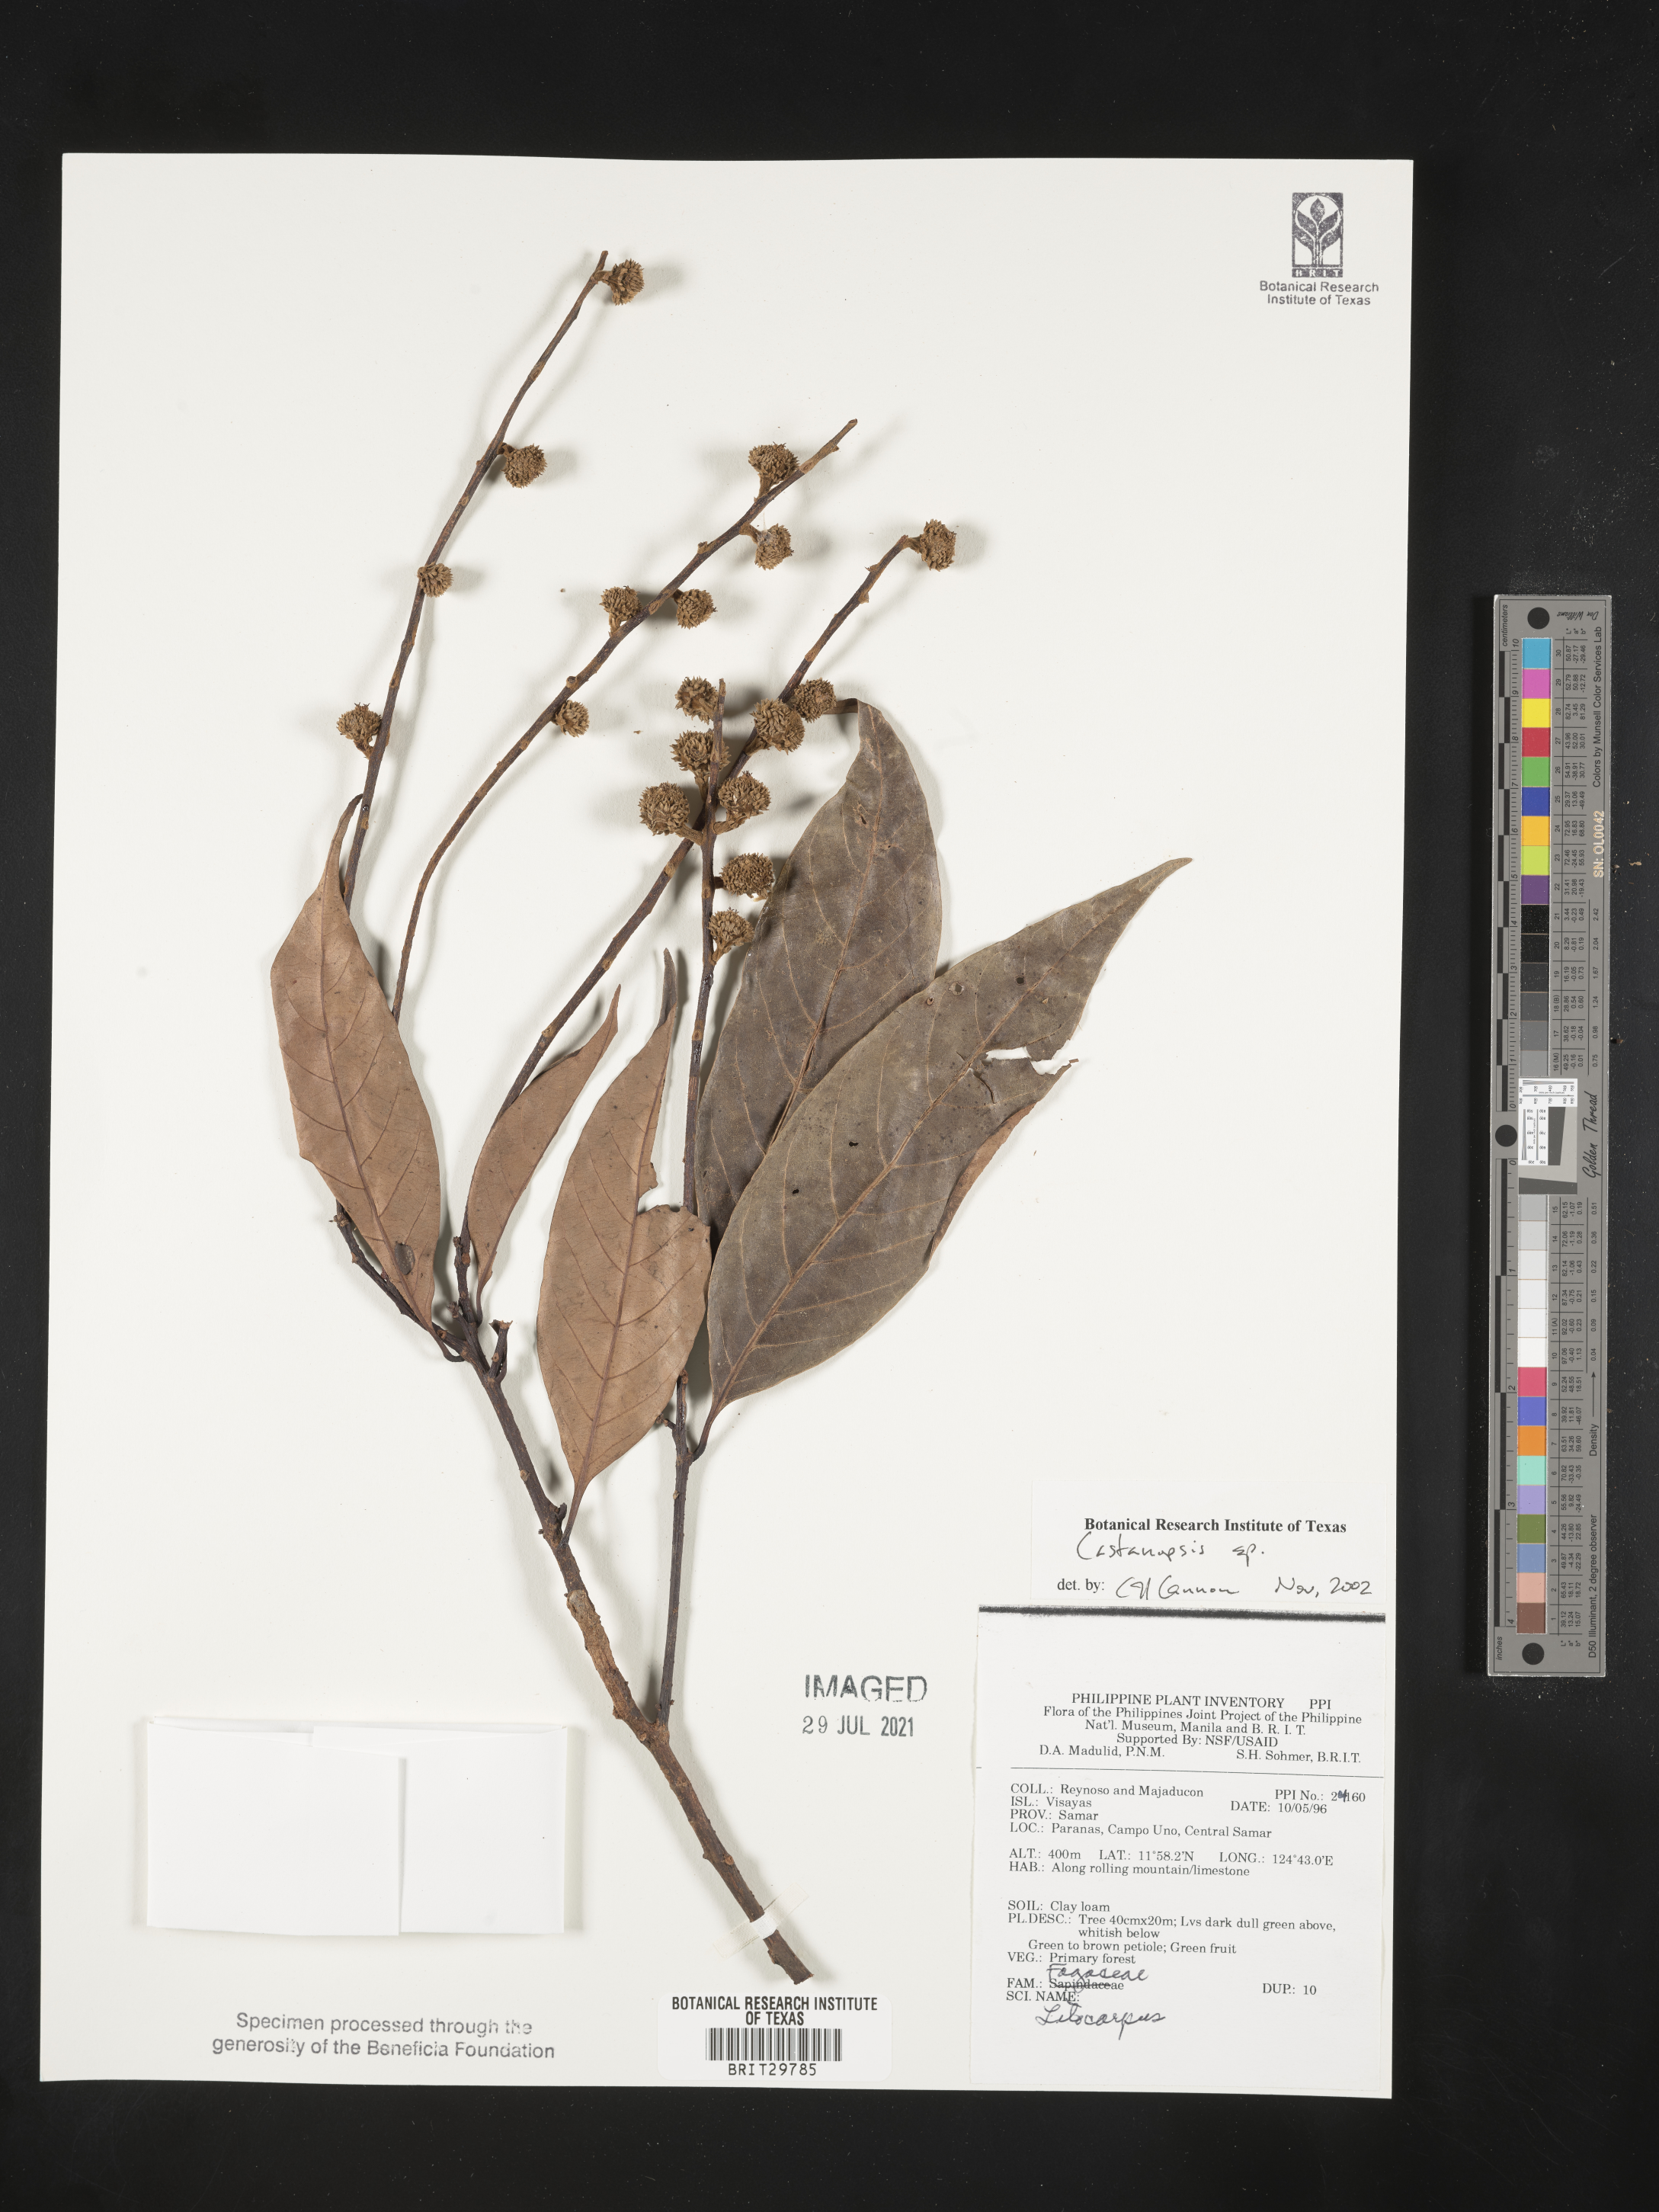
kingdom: Plantae
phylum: Tracheophyta
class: Magnoliopsida
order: Fagales
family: Fagaceae
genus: Castanopsis
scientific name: Castanopsis
